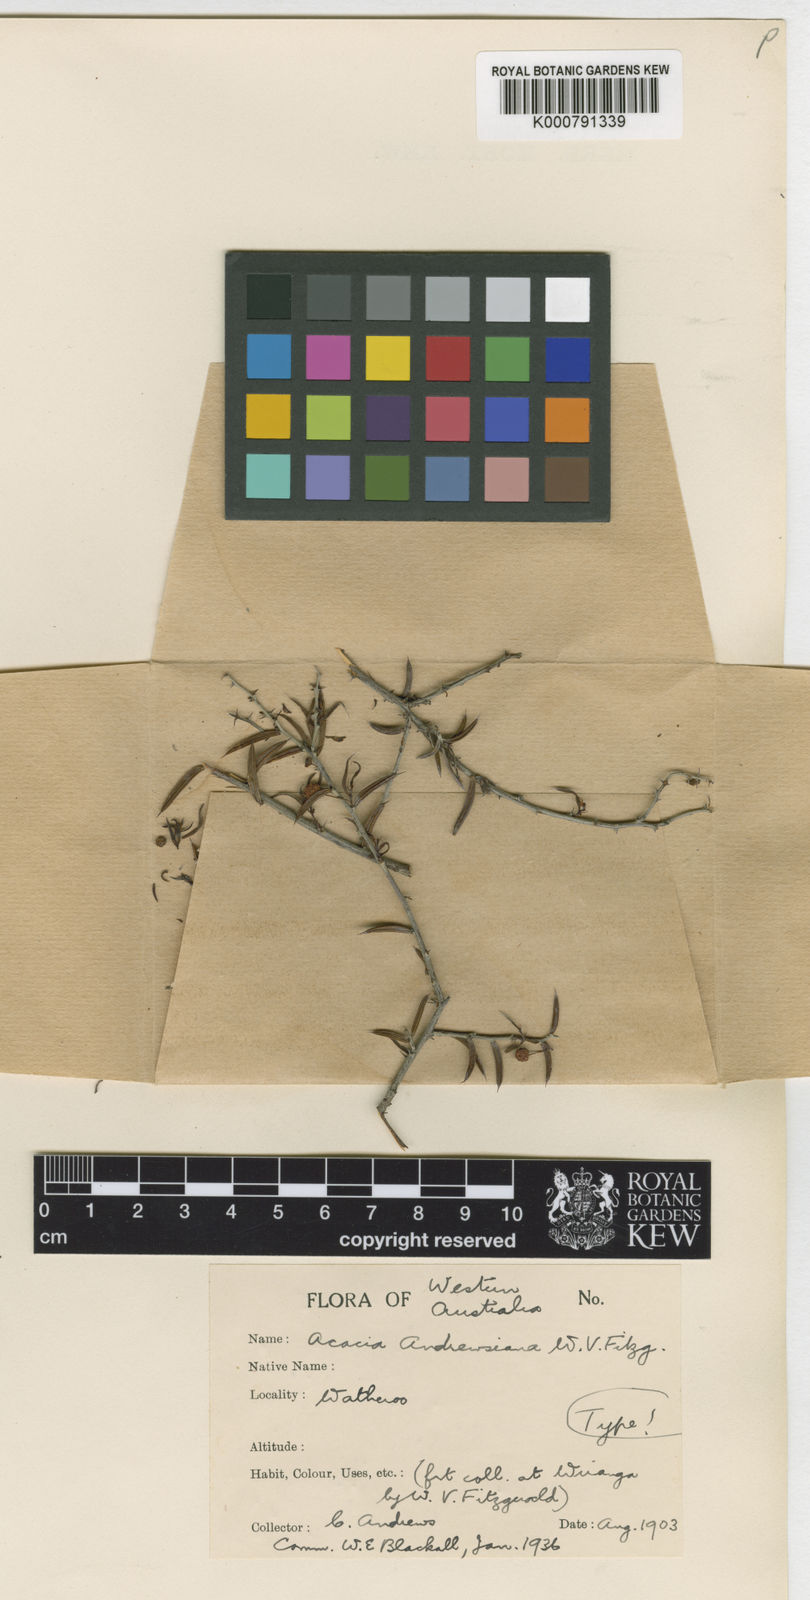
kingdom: Plantae
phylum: Tracheophyta
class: Magnoliopsida
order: Fabales
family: Fabaceae
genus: Acacia
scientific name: Acacia
